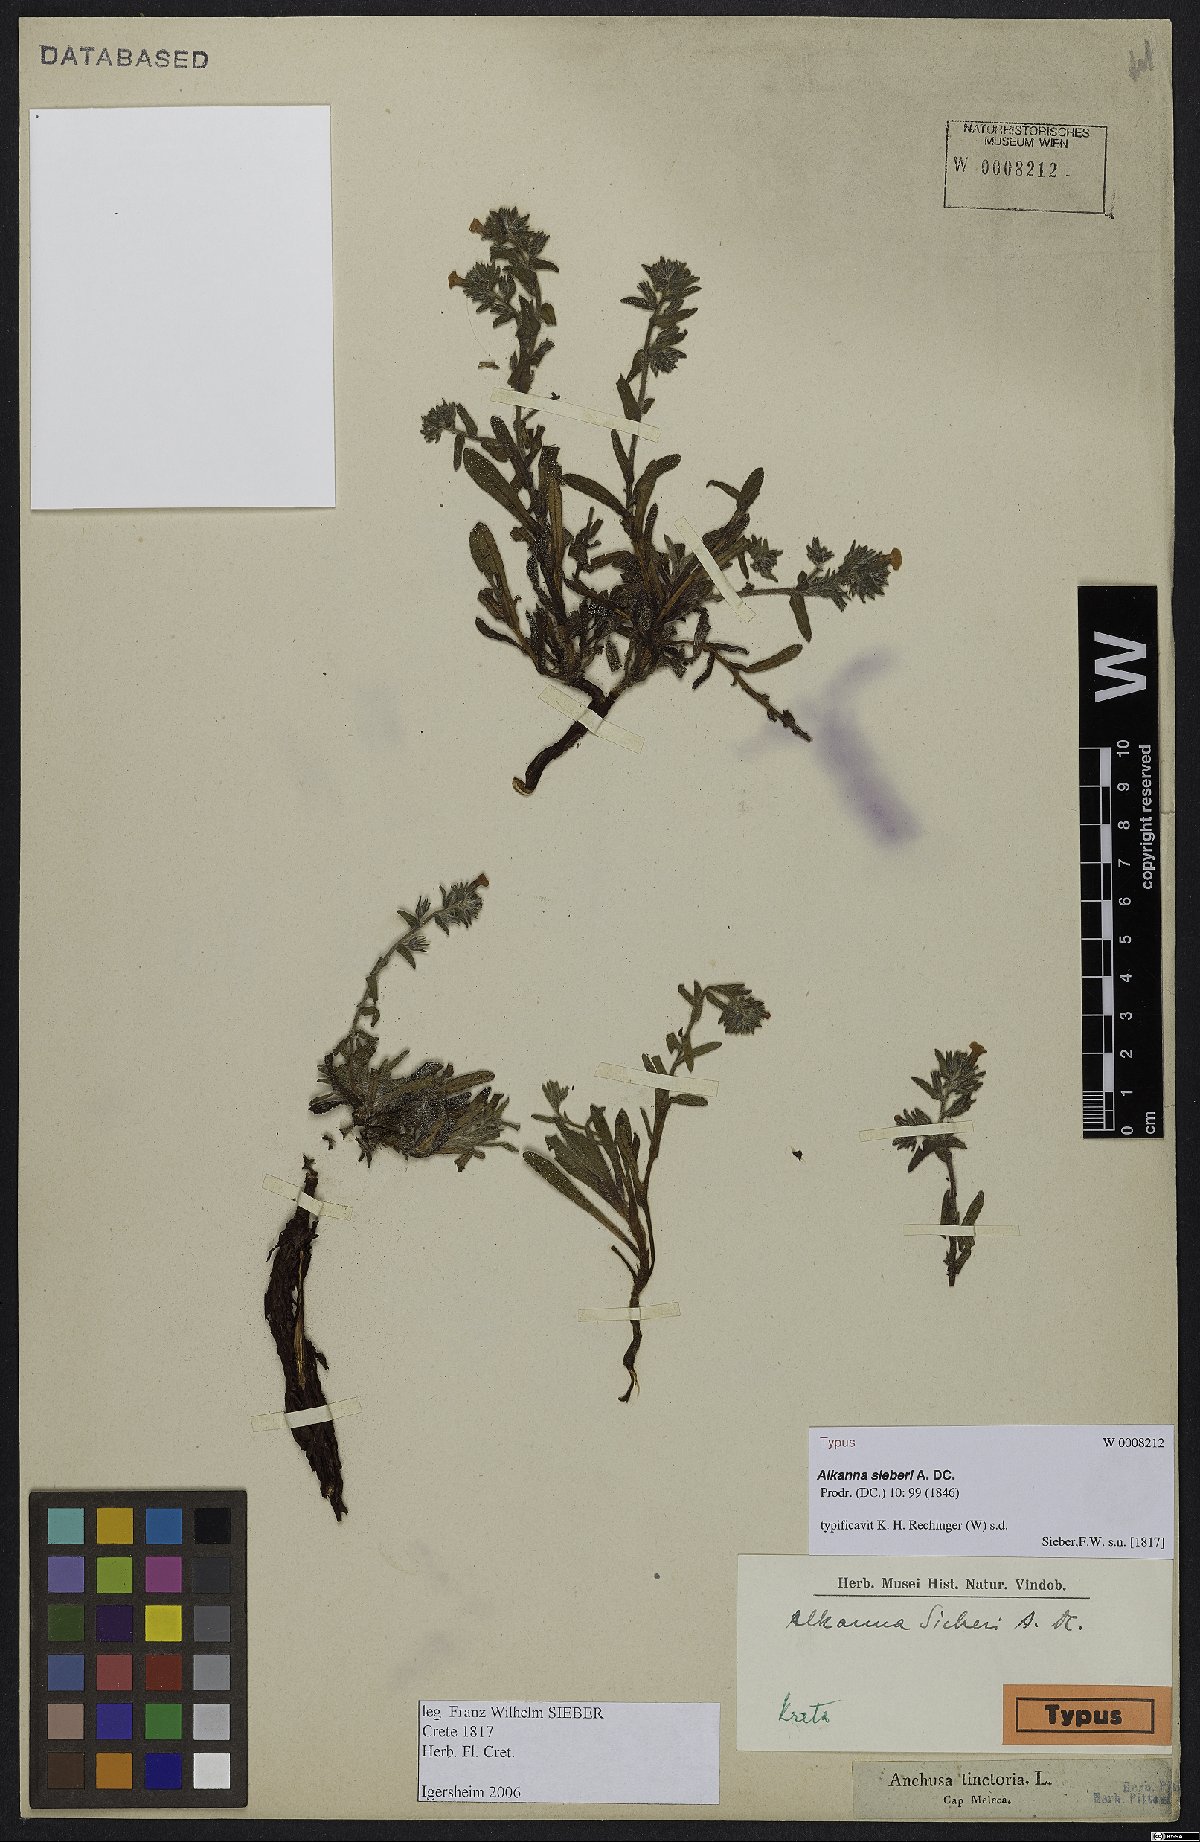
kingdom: Plantae
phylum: Tracheophyta
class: Magnoliopsida
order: Boraginales
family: Boraginaceae
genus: Alkanna
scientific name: Alkanna sieberi
